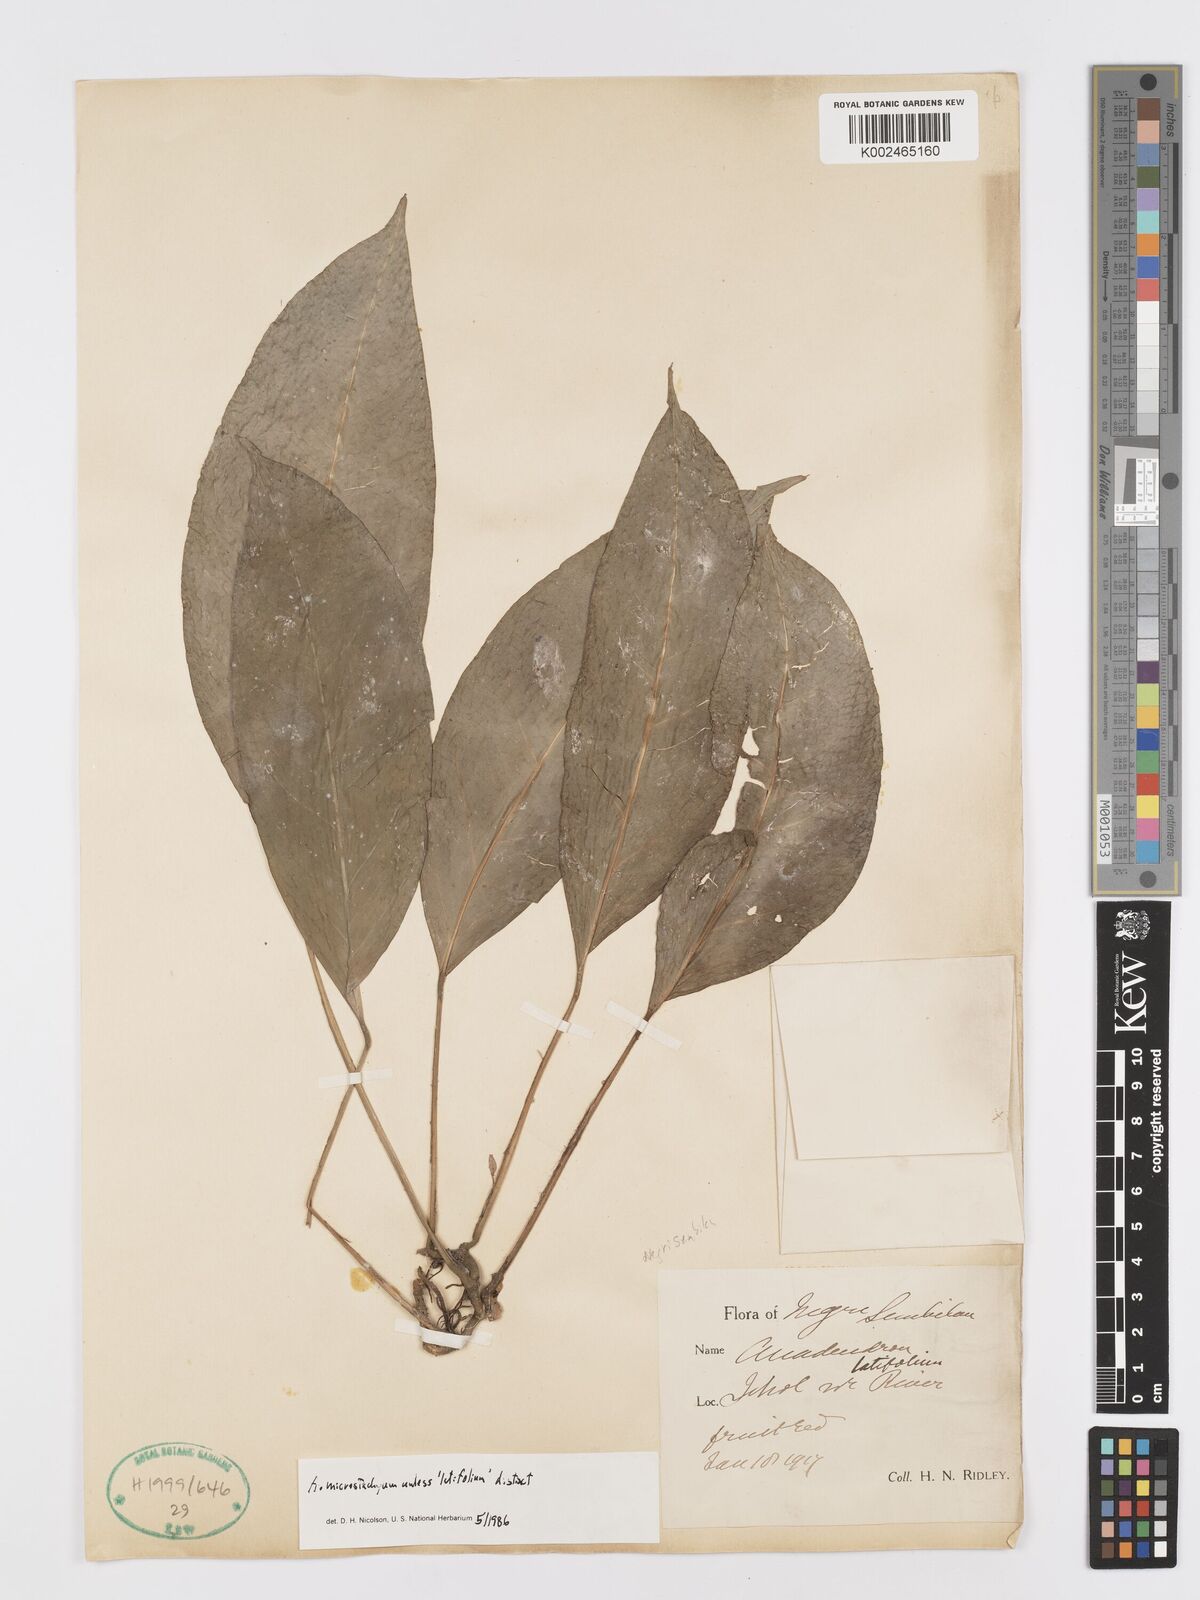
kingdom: Plantae
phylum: Tracheophyta
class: Liliopsida
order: Alismatales
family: Araceae
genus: Anadendrum
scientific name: Anadendrum microstachyum
